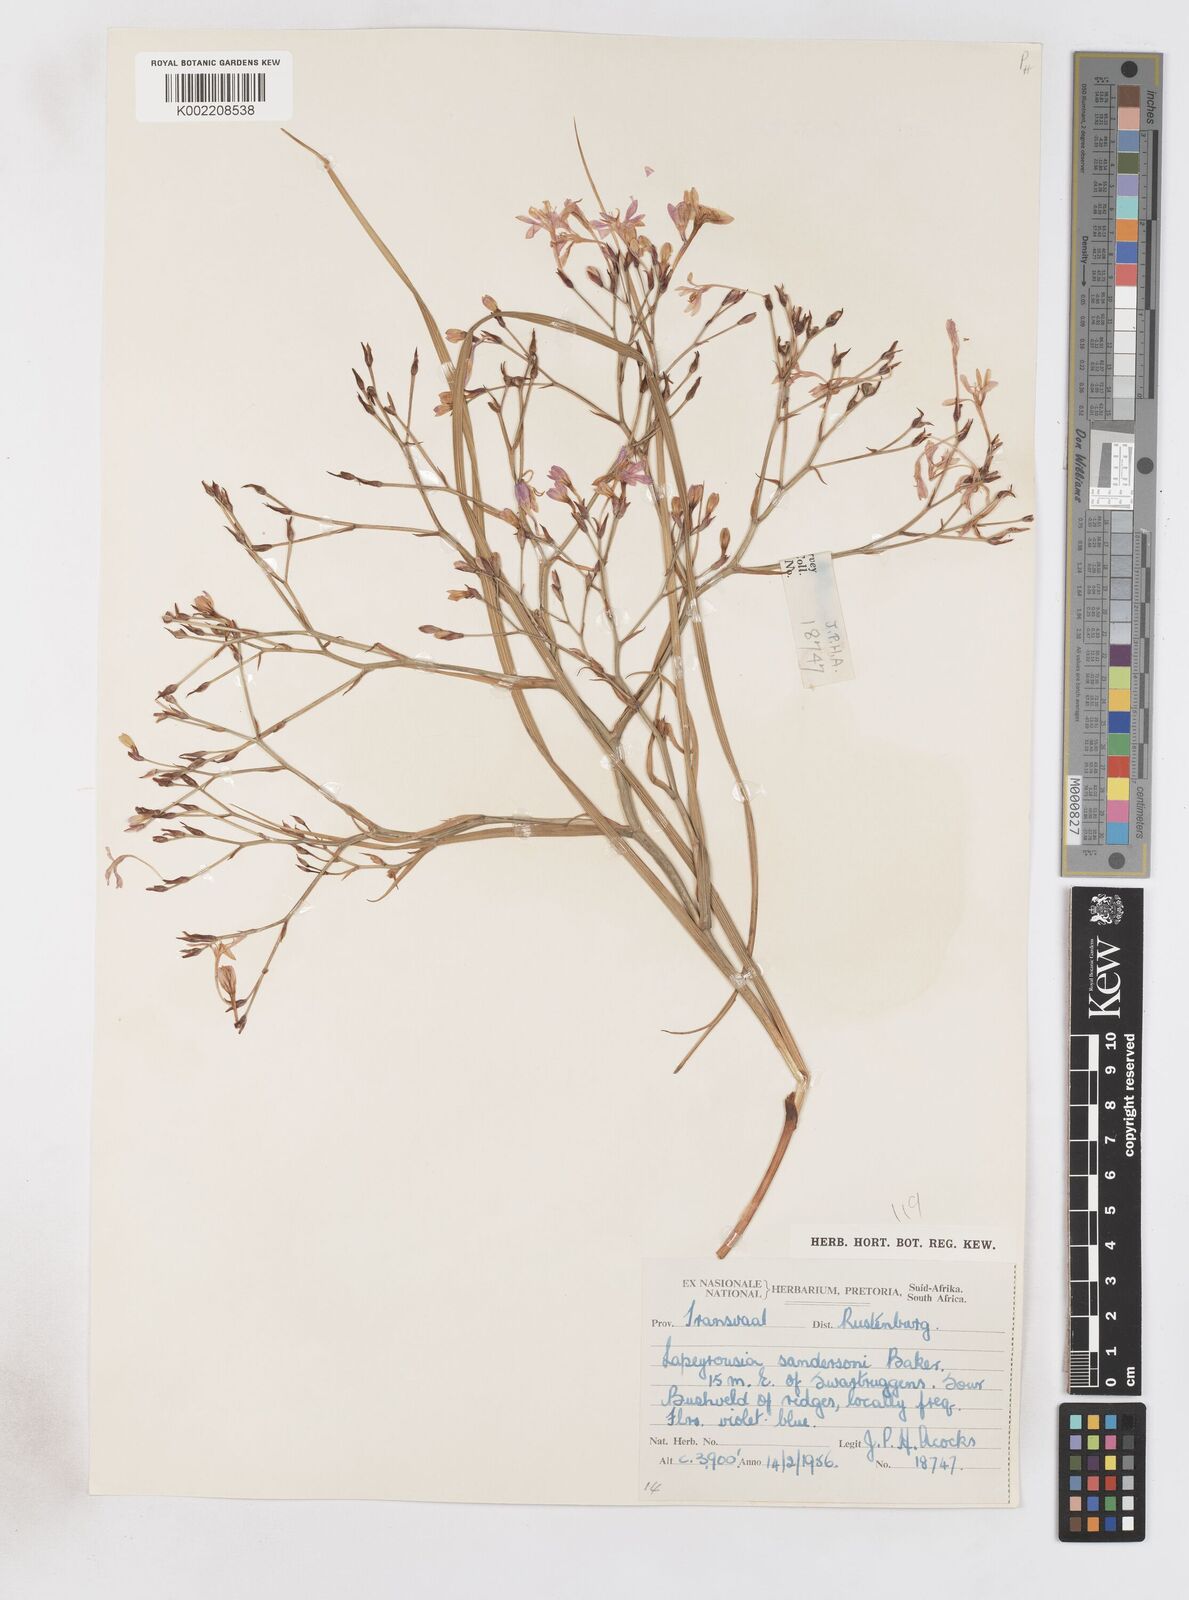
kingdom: Plantae
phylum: Tracheophyta
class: Liliopsida
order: Asparagales
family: Iridaceae
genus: Afrosolen
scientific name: Afrosolen sandersonii
